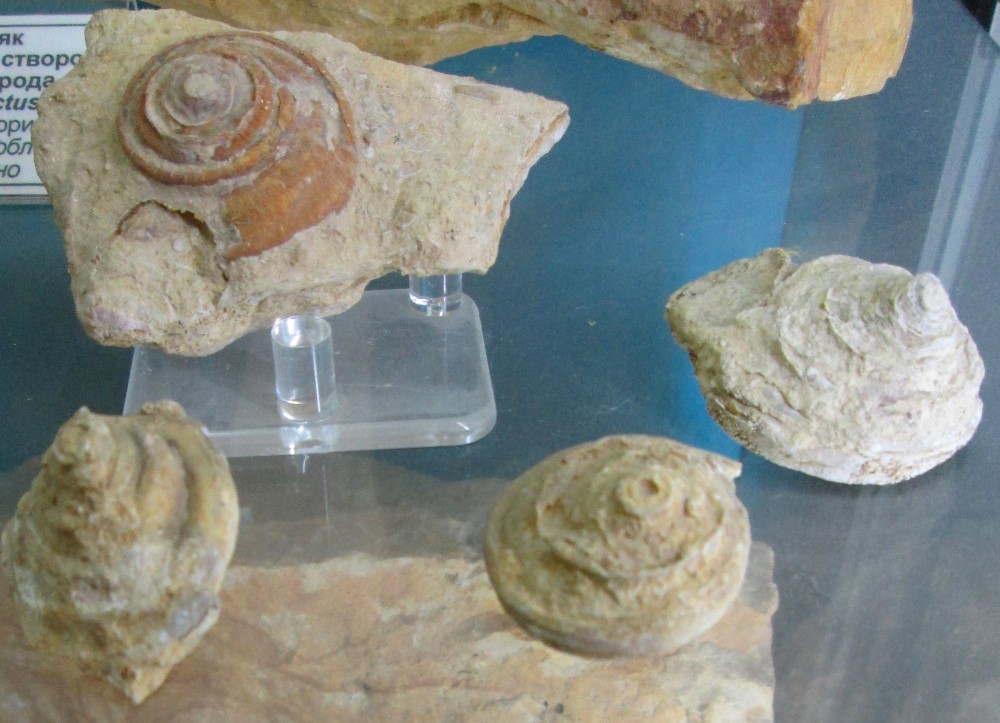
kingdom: Animalia
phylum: Mollusca
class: Gastropoda
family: Omphalotrochidae
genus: Omphalotrochus
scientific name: Omphalotrochus canaliculatus
